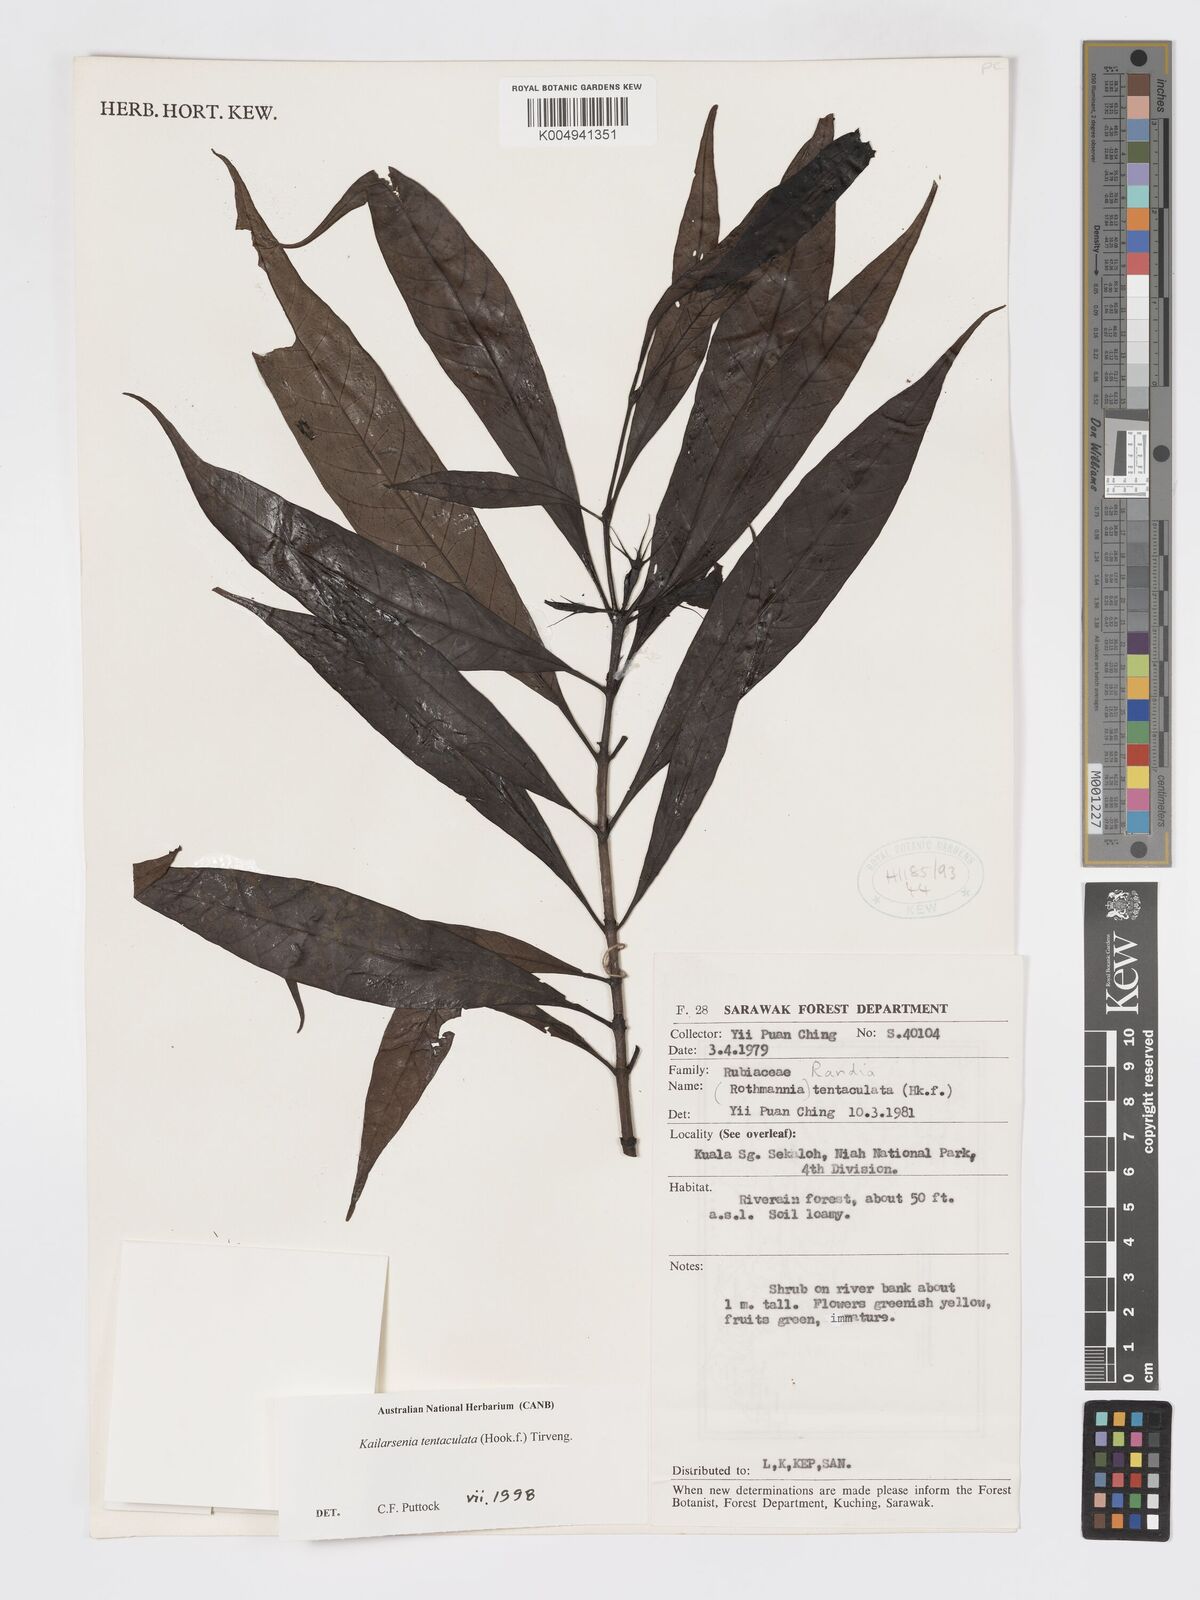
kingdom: Plantae
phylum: Tracheophyta
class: Magnoliopsida
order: Gentianales
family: Rubiaceae
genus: Kailarsenia
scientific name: Kailarsenia tentaculata
